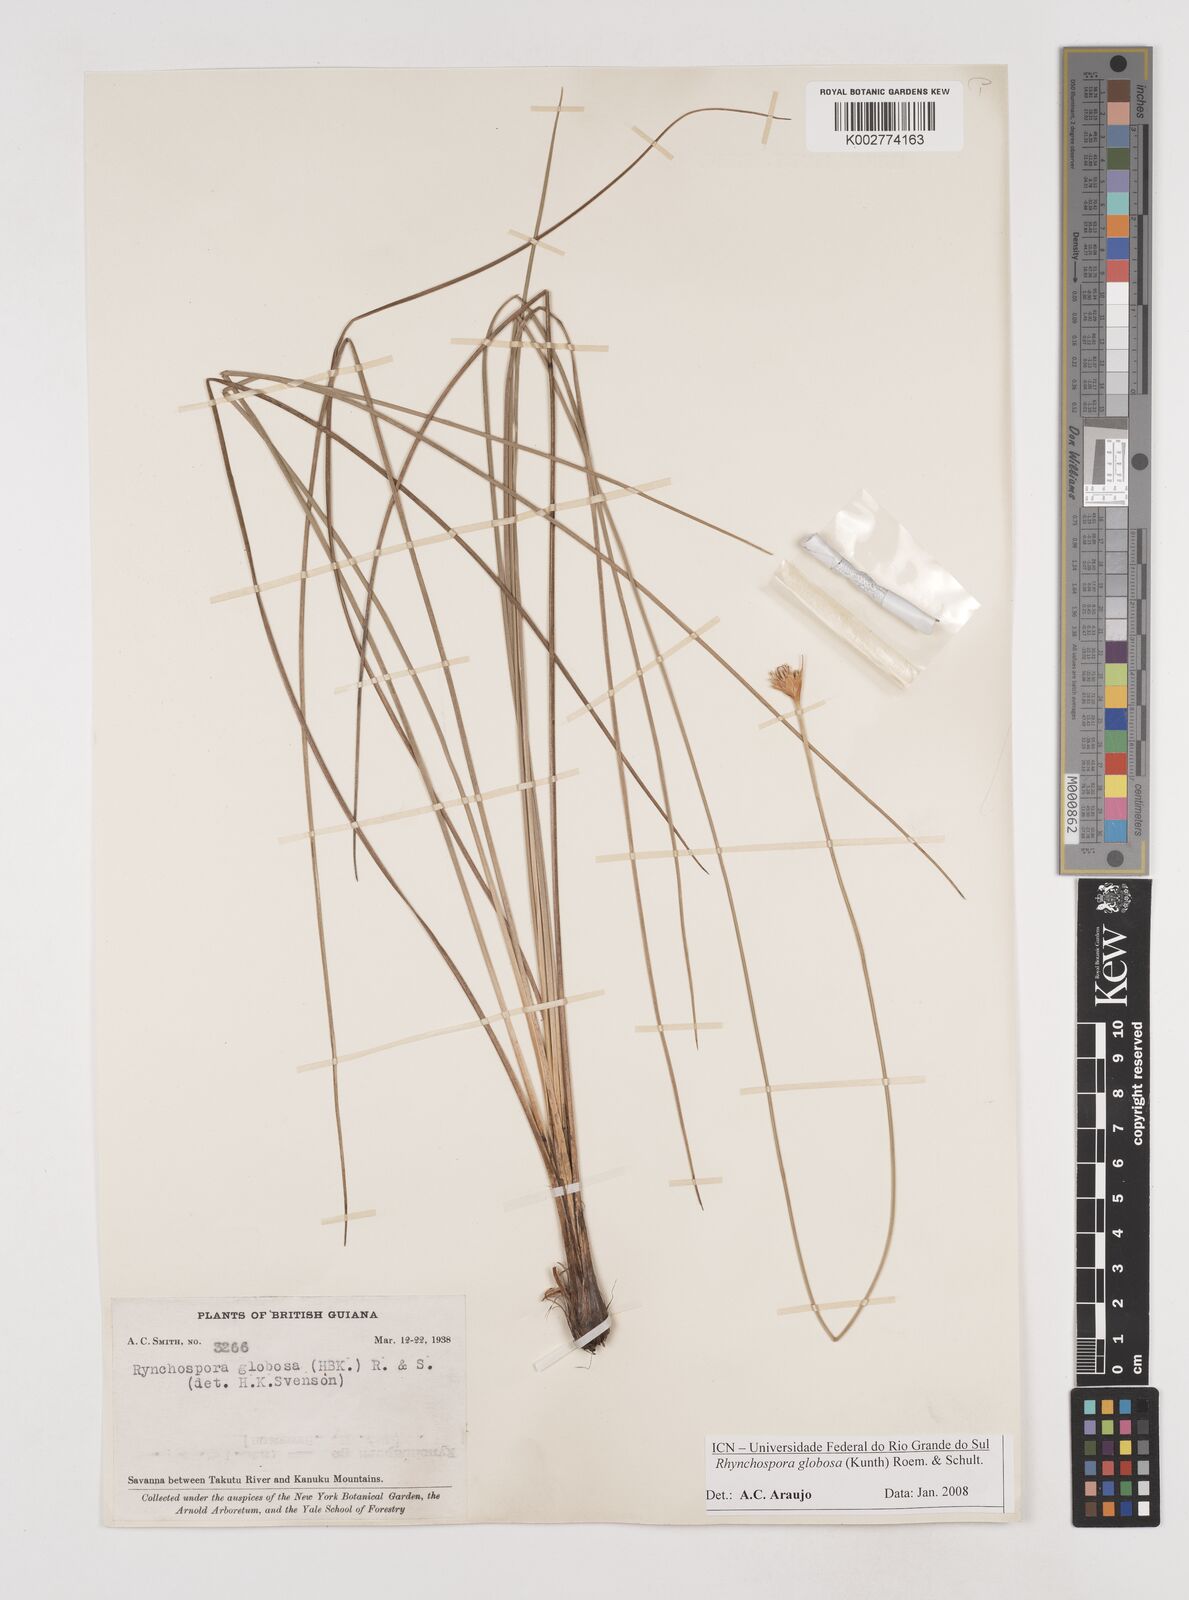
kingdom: Plantae
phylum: Tracheophyta
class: Liliopsida
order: Poales
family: Cyperaceae
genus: Rhynchospora
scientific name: Rhynchospora globosa
